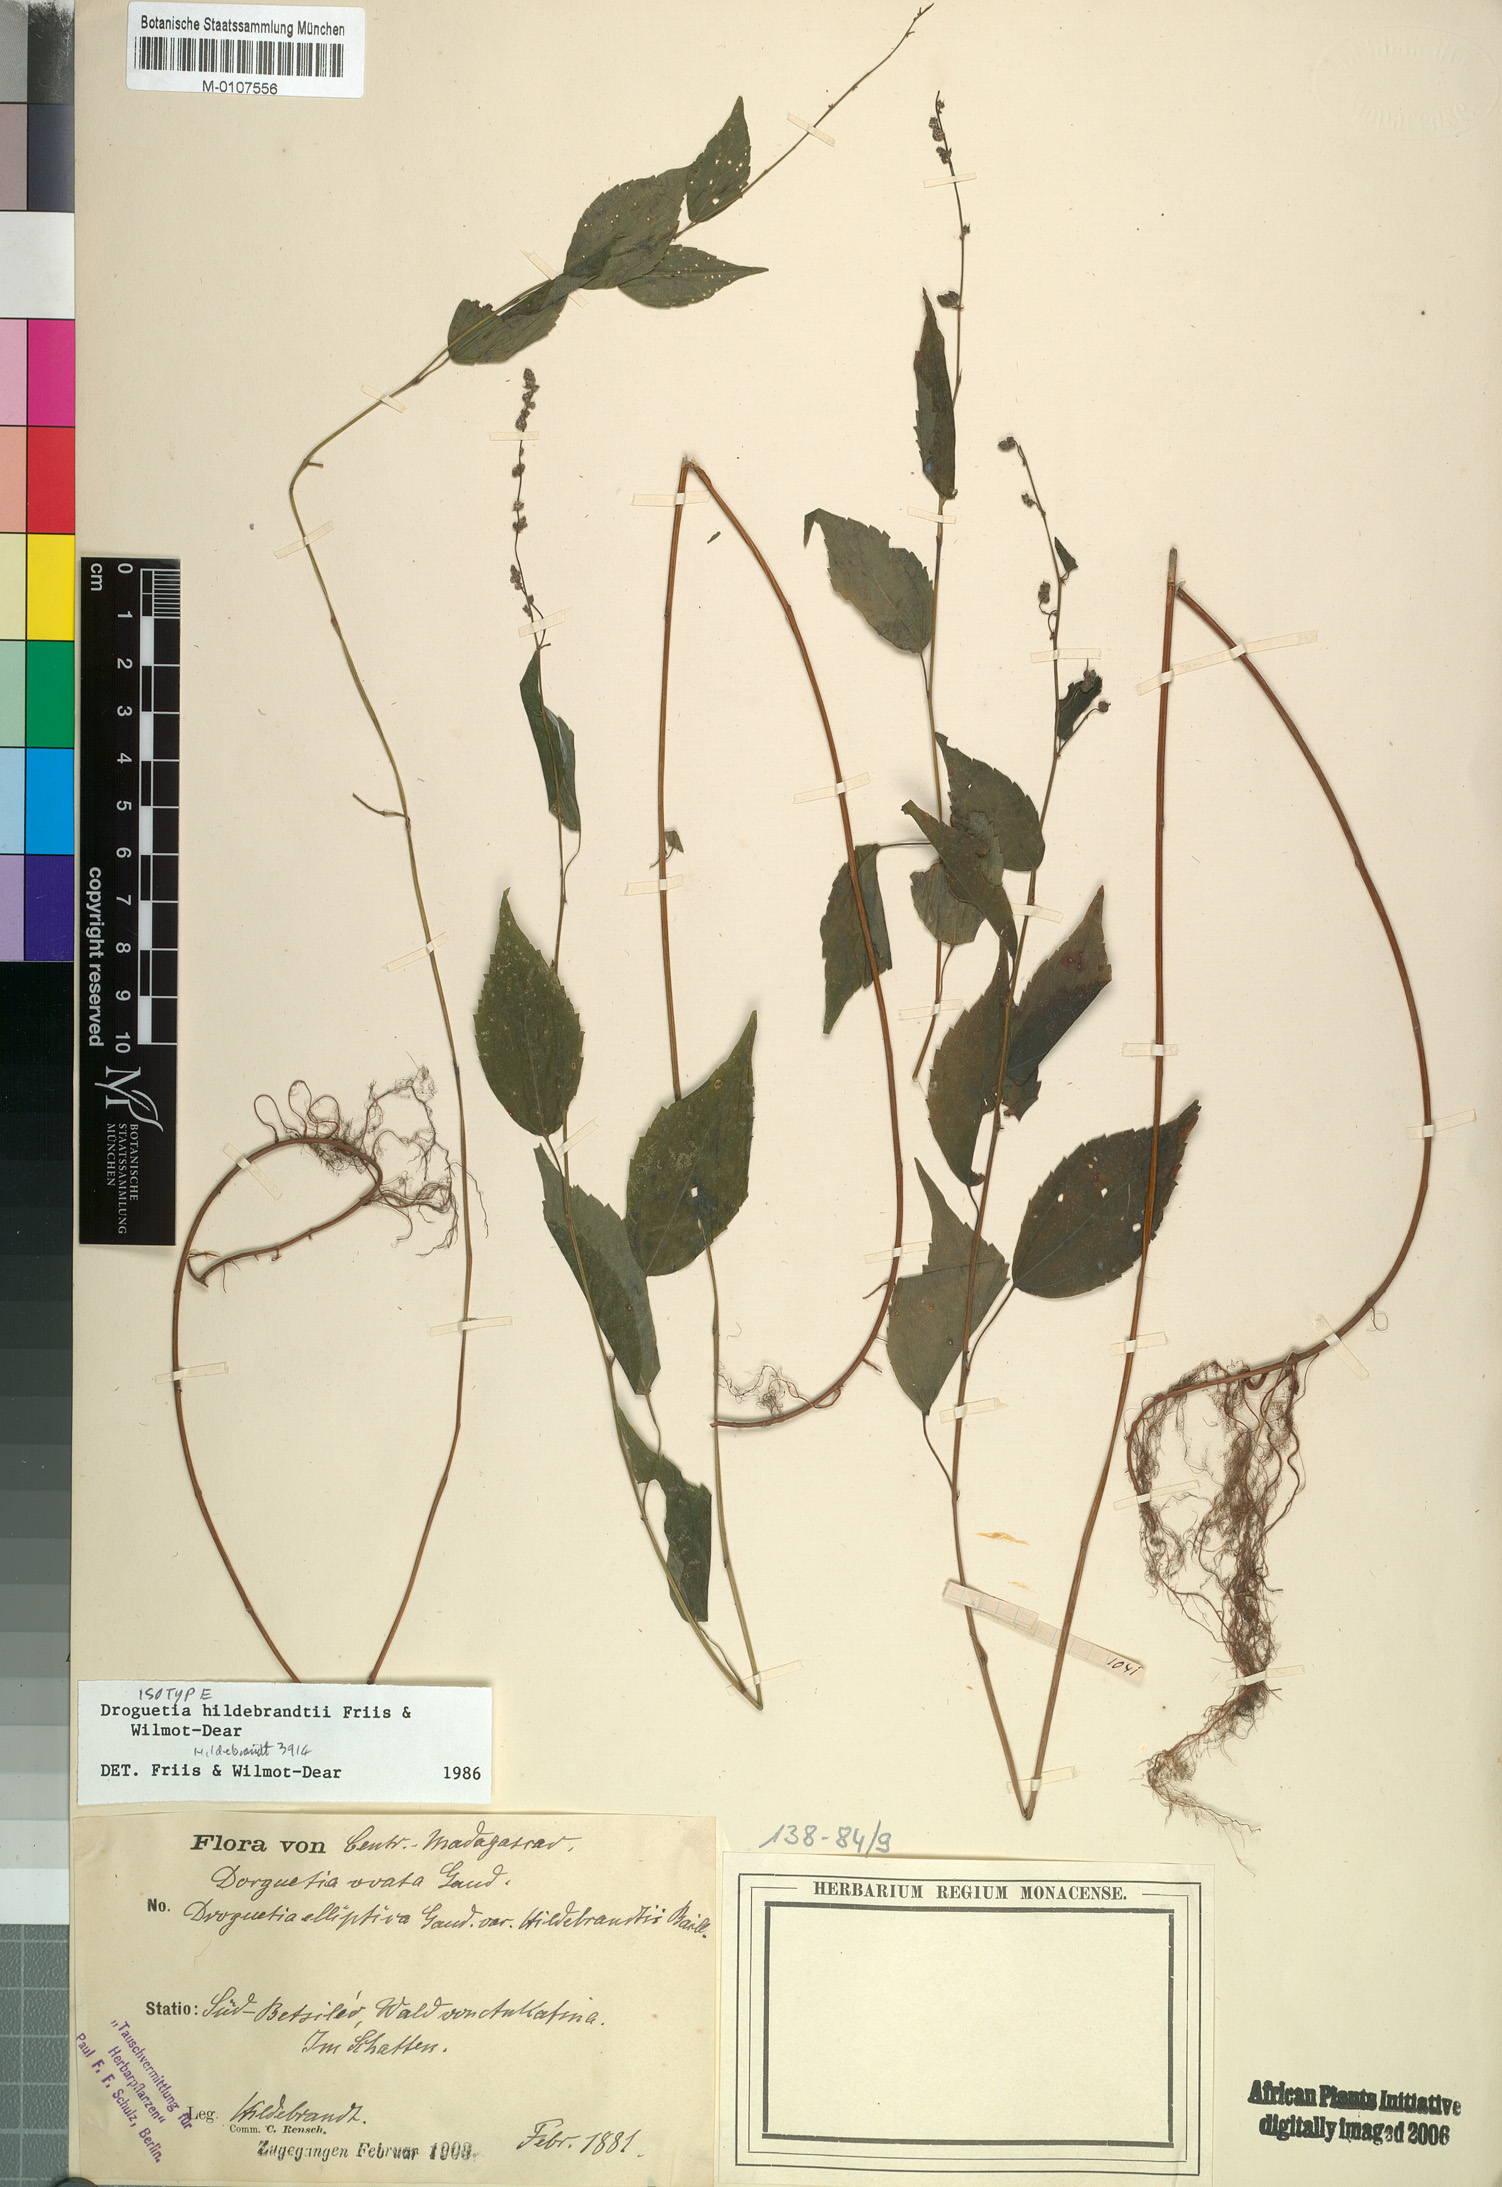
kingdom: Plantae
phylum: Tracheophyta
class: Magnoliopsida
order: Rosales
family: Urticaceae
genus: Droguetia
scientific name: Droguetia hildebrandtii
